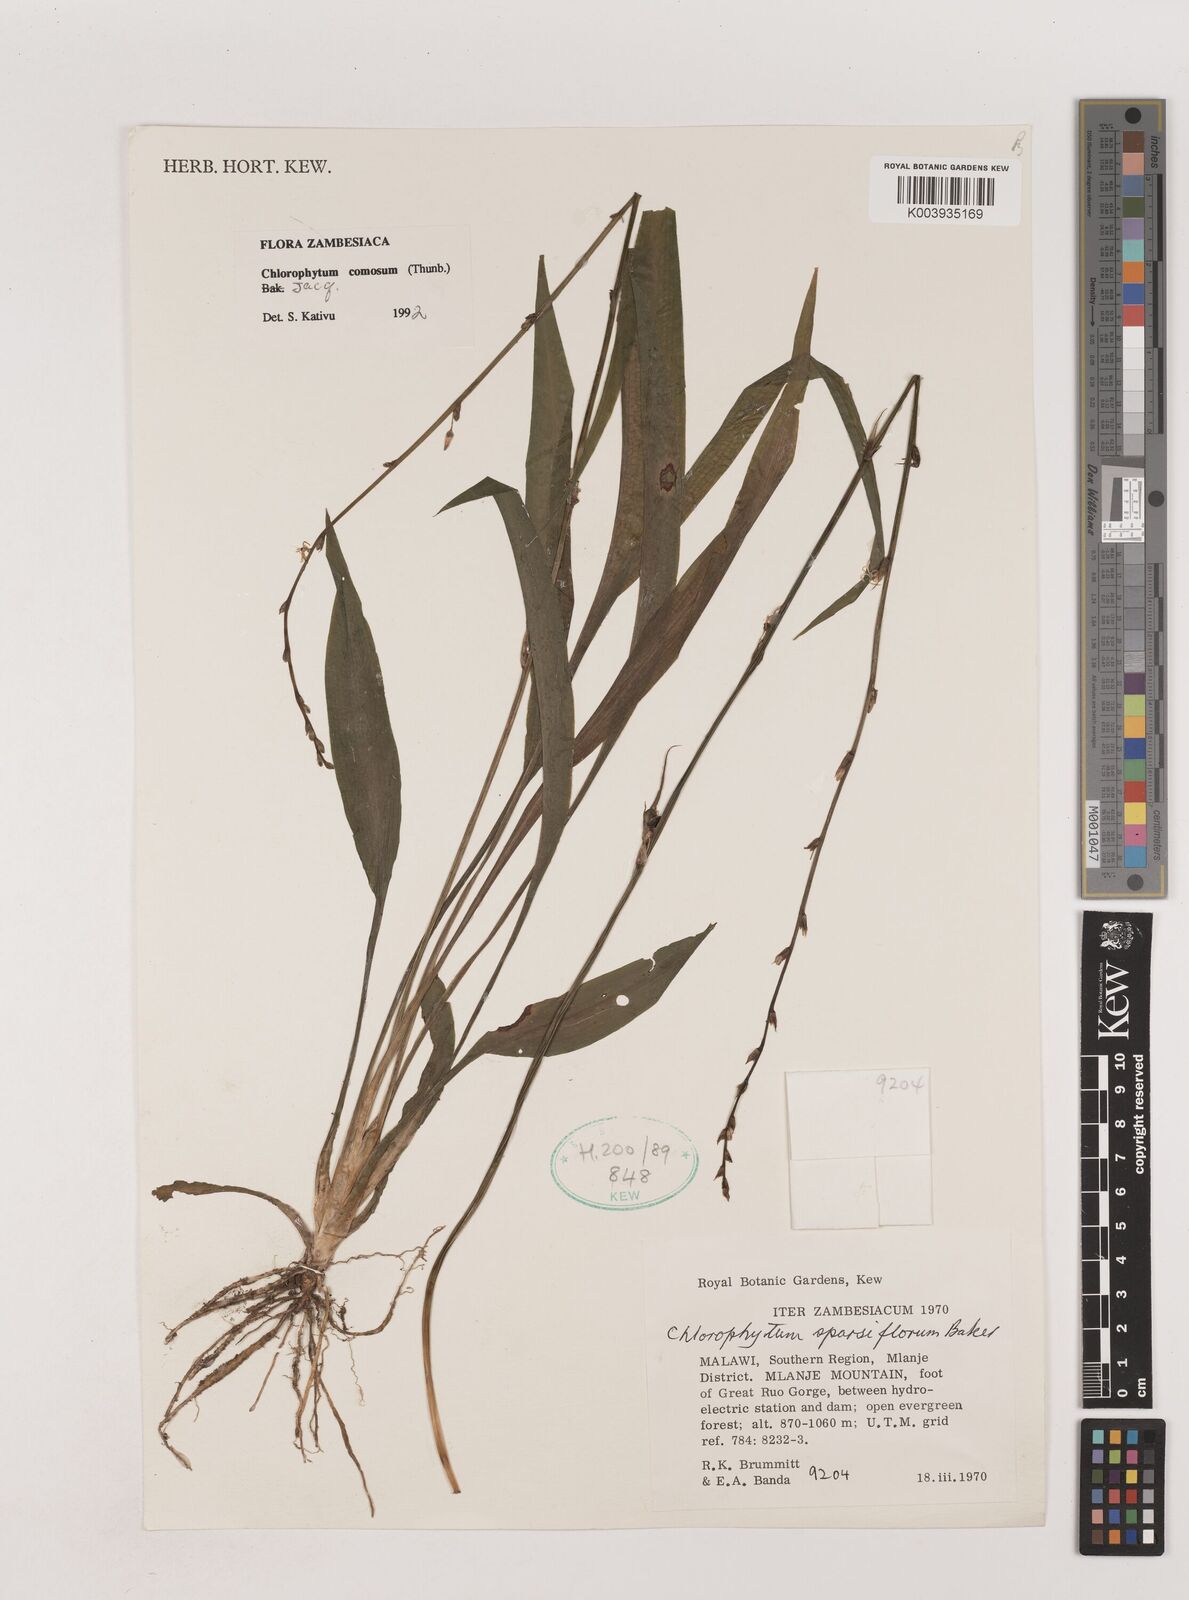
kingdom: Plantae
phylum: Tracheophyta
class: Liliopsida
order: Asparagales
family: Asparagaceae
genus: Chlorophytum
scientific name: Chlorophytum comosum
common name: Spider plant
